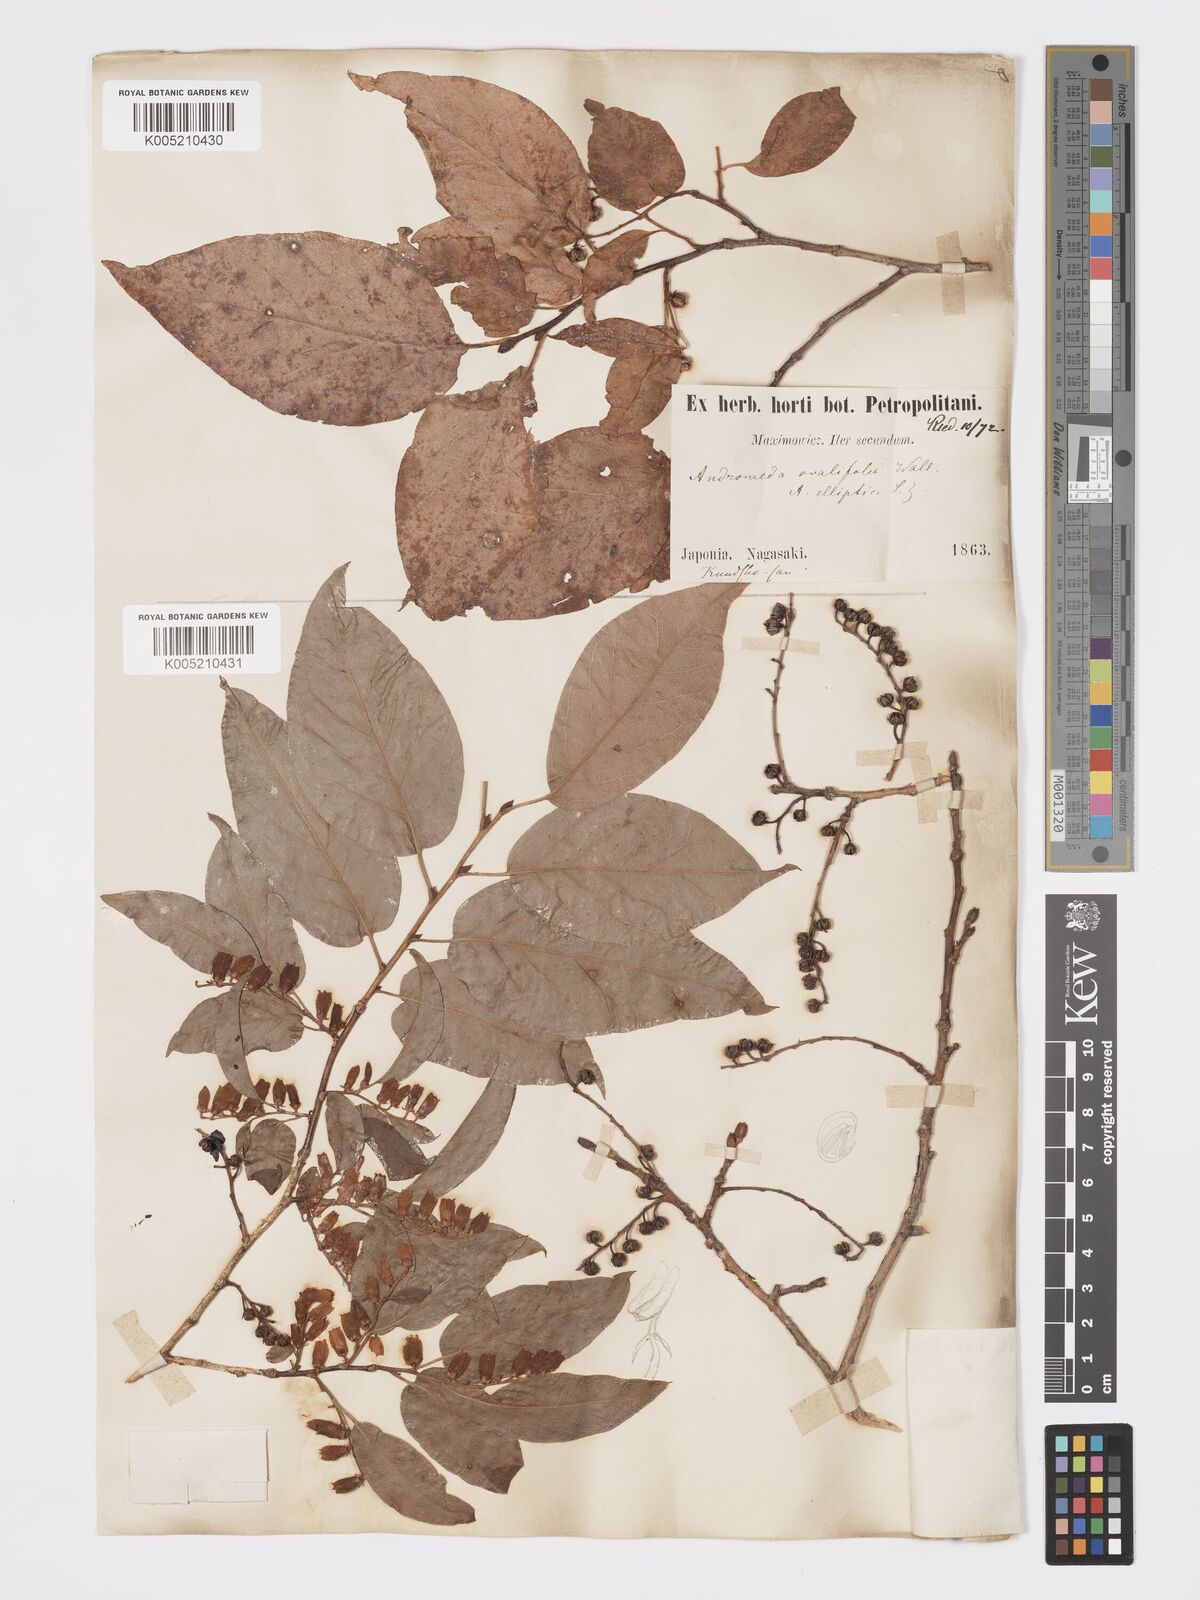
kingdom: Plantae
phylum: Tracheophyta
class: Magnoliopsida
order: Ericales
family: Ericaceae
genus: Lyonia
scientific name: Lyonia elliptica
